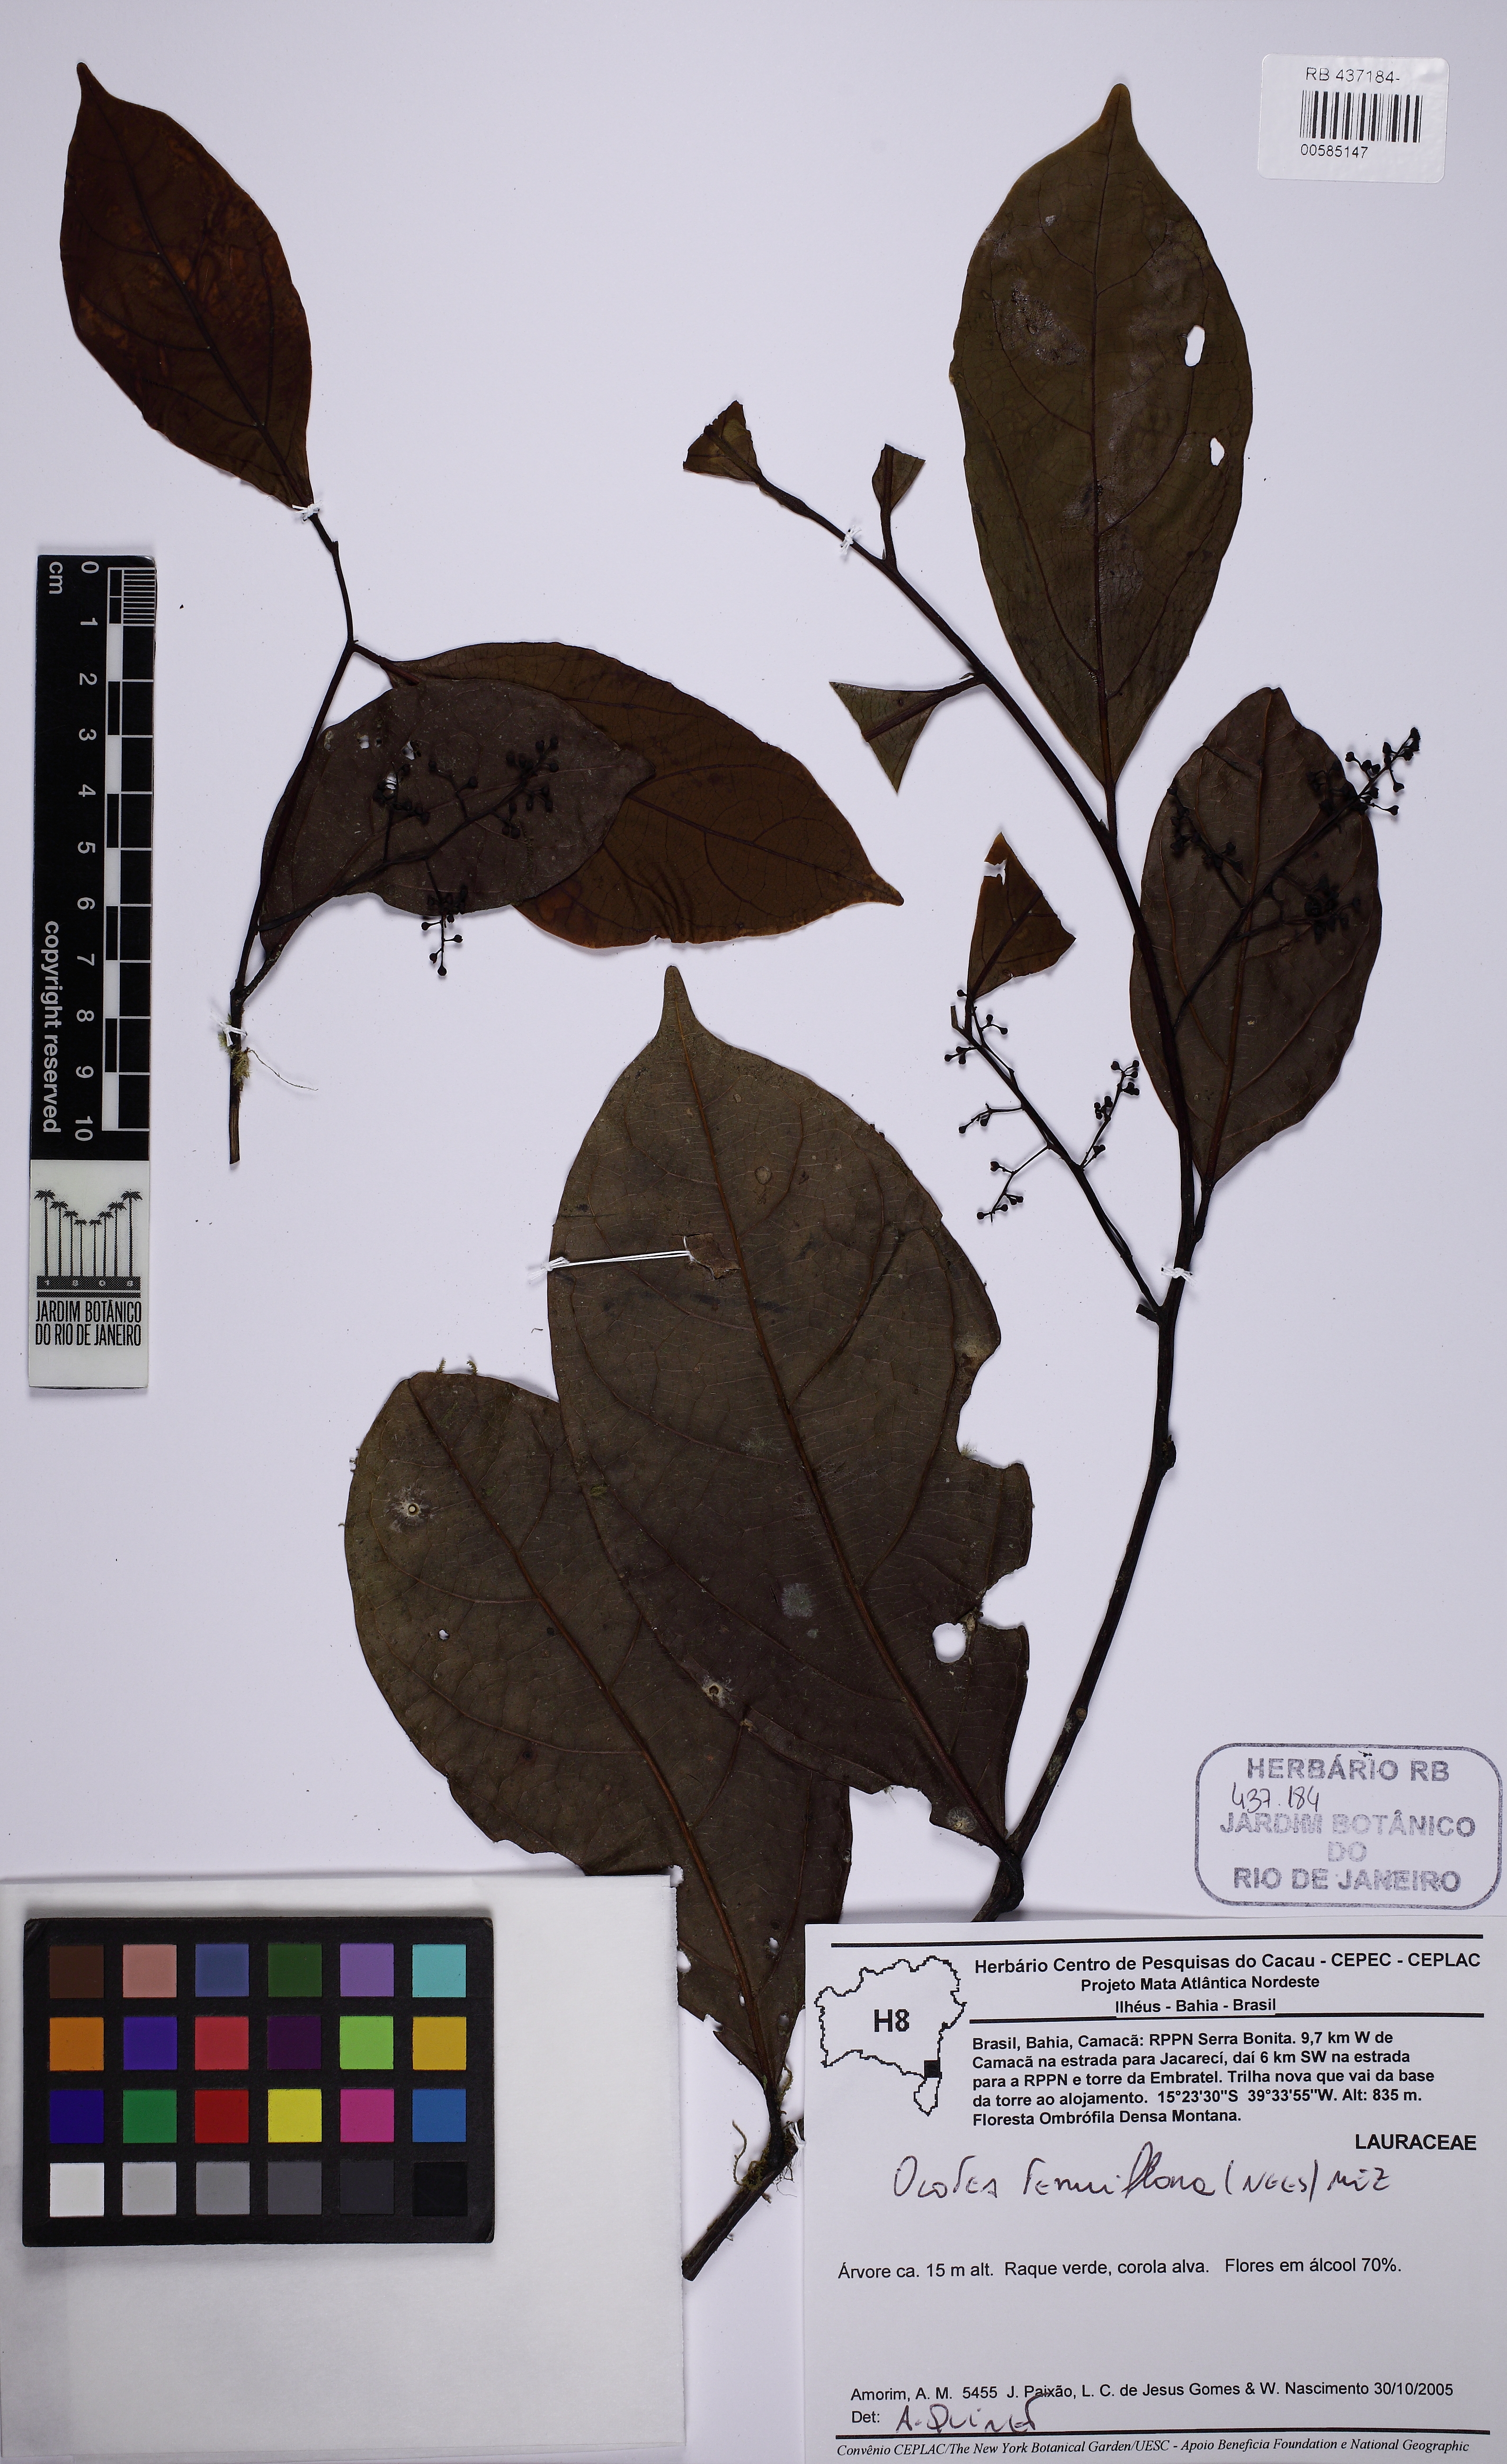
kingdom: Plantae
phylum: Tracheophyta
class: Magnoliopsida
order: Laurales
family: Lauraceae
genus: Ocotea
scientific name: Ocotea tenuiflora
